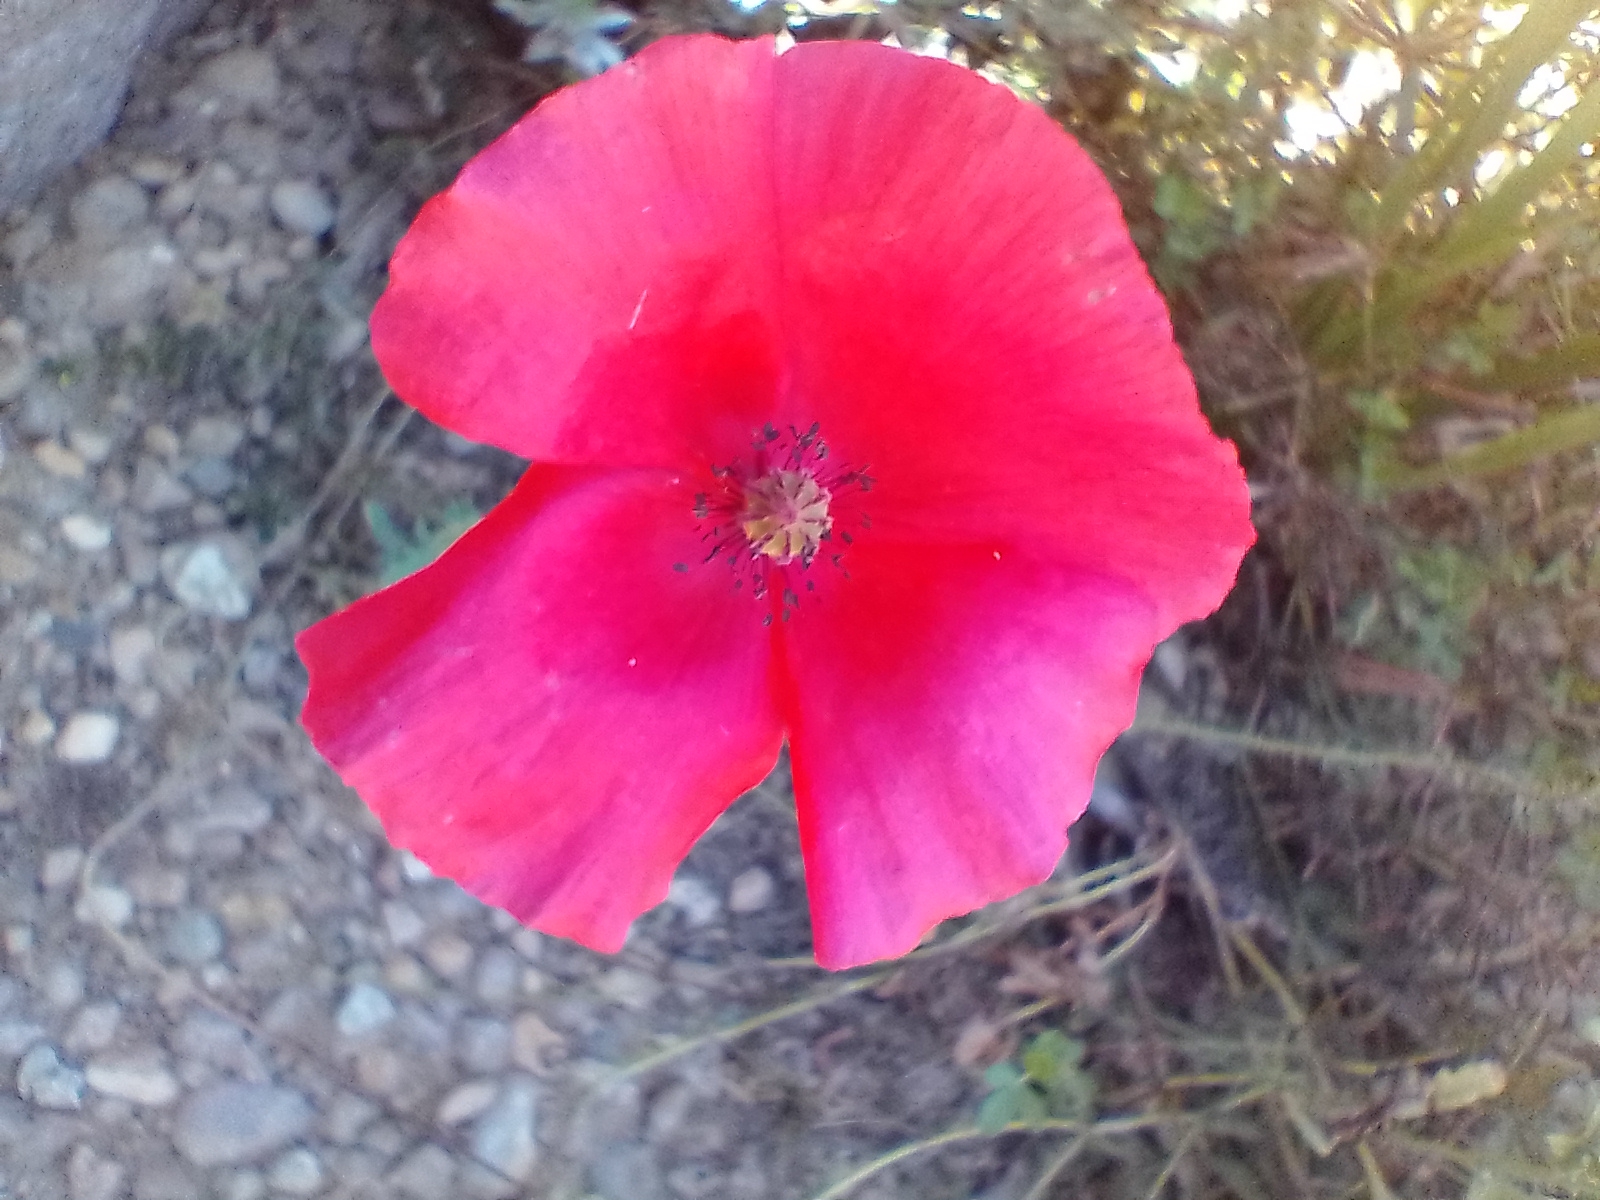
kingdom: Plantae
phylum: Tracheophyta
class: Magnoliopsida
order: Ranunculales
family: Papaveraceae
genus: Papaver
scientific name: Papaver rhoeas
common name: Korn-valmue
